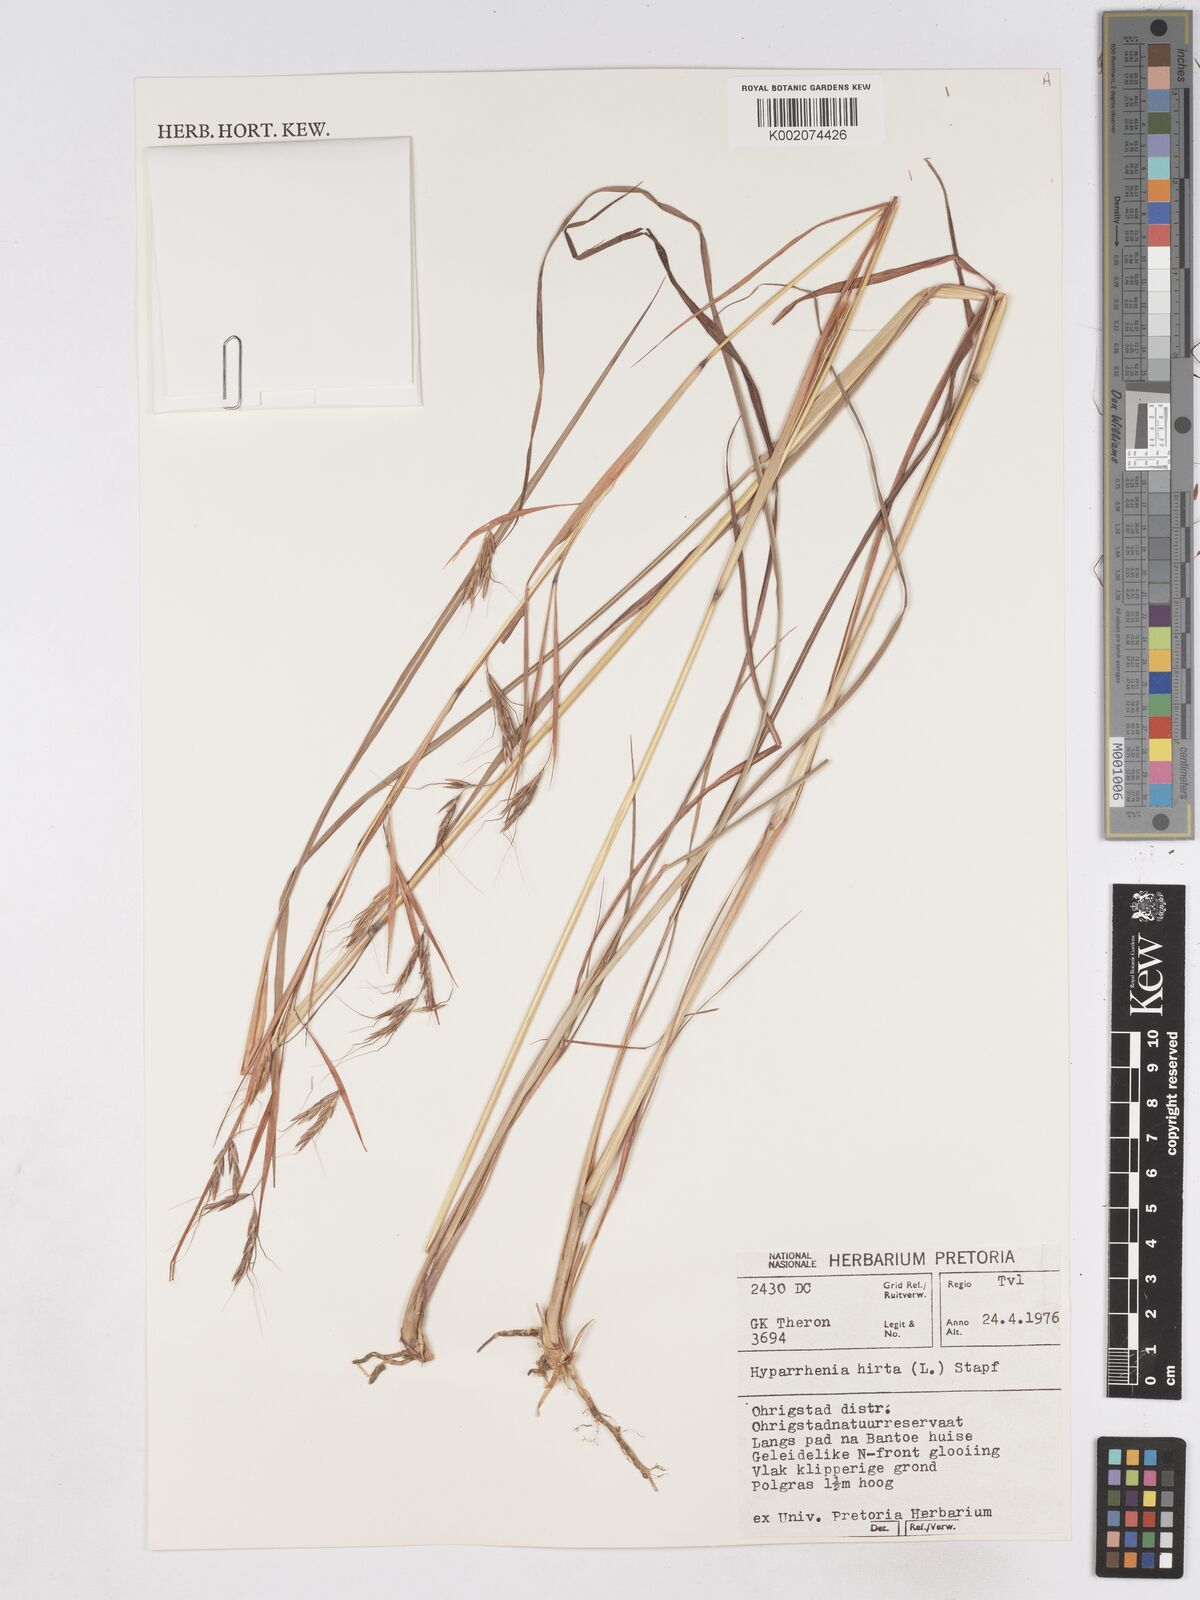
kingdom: Plantae
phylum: Tracheophyta
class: Liliopsida
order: Poales
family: Poaceae
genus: Hyparrhenia
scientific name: Hyparrhenia hirta
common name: Thatching grass
